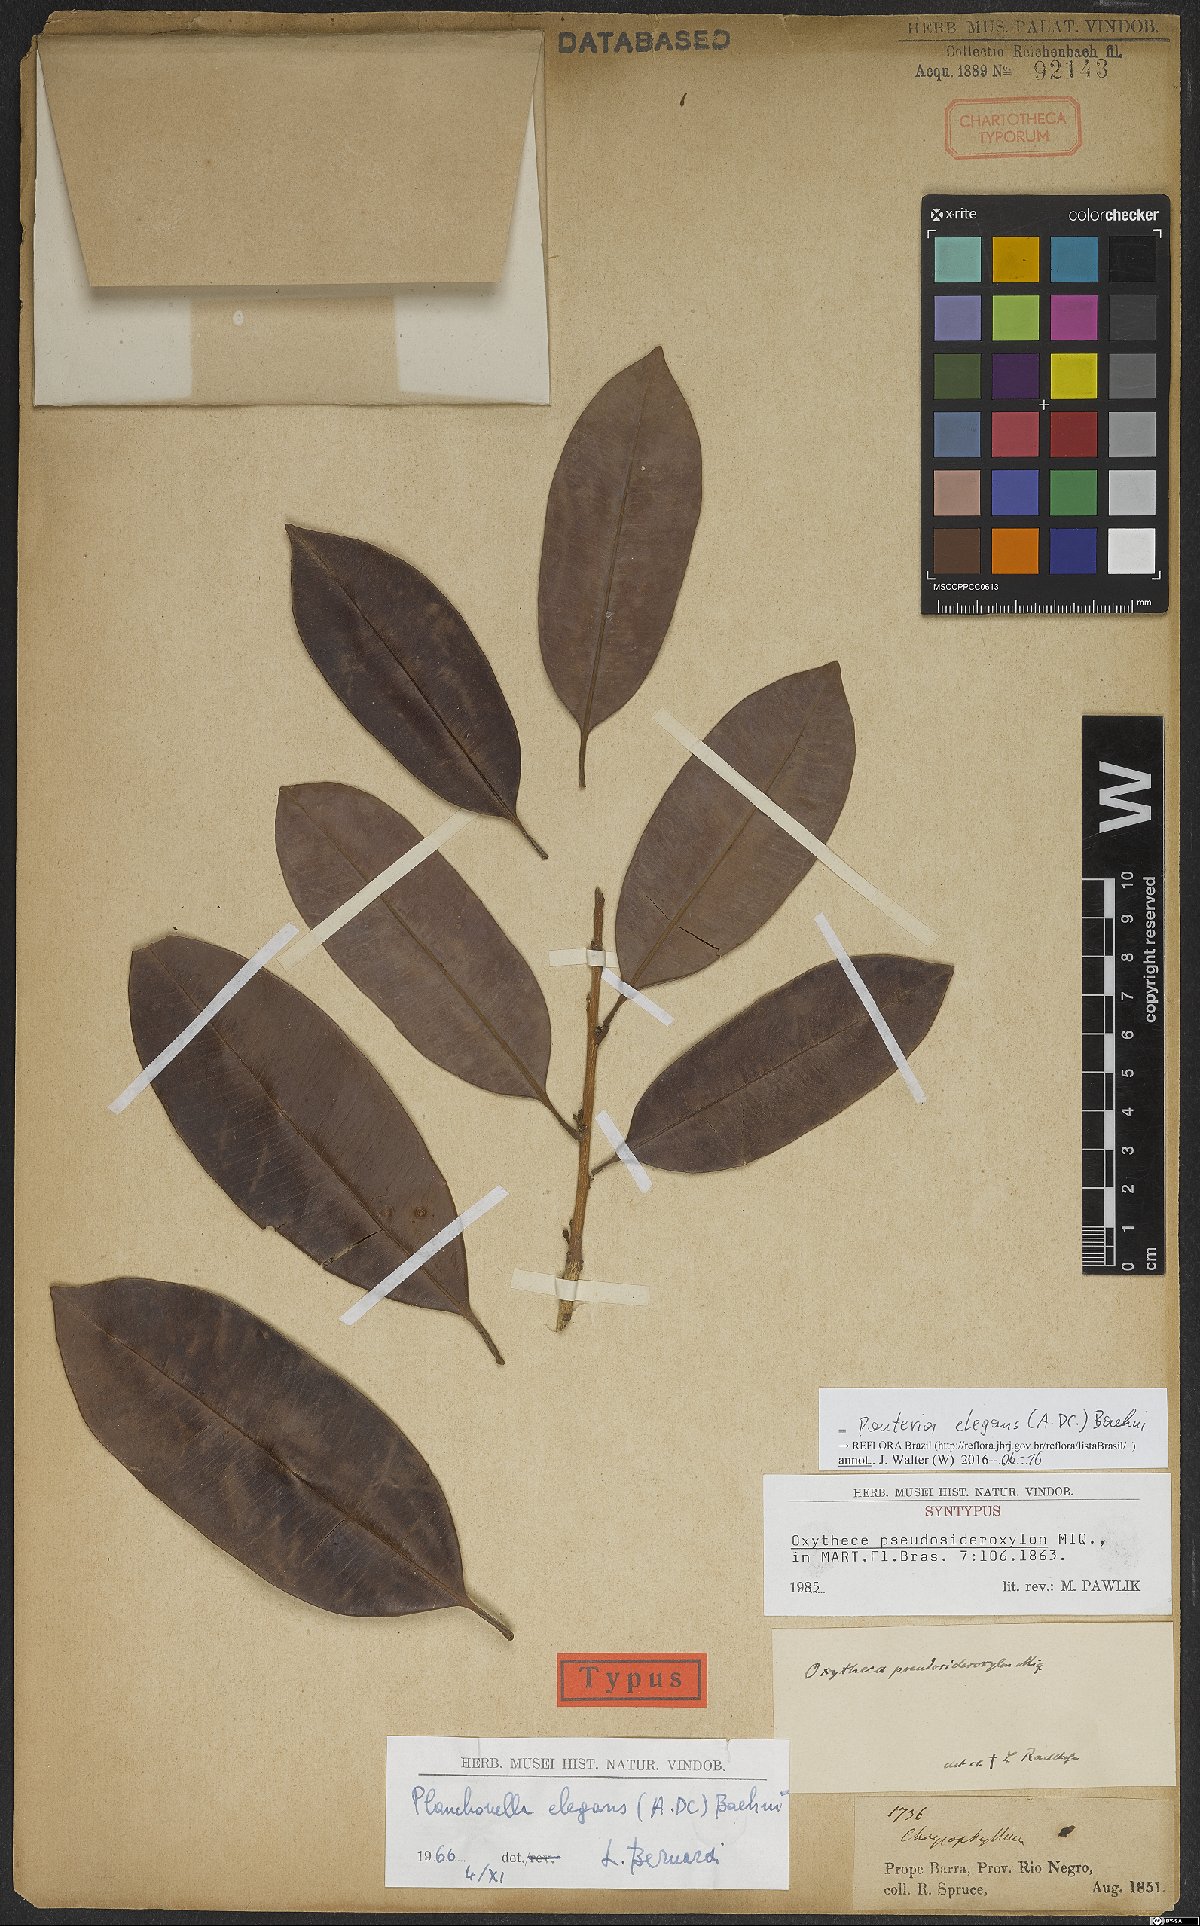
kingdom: Plantae
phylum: Tracheophyta
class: Magnoliopsida
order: Ericales
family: Sapotaceae
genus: Pouteria
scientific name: Pouteria elegans
